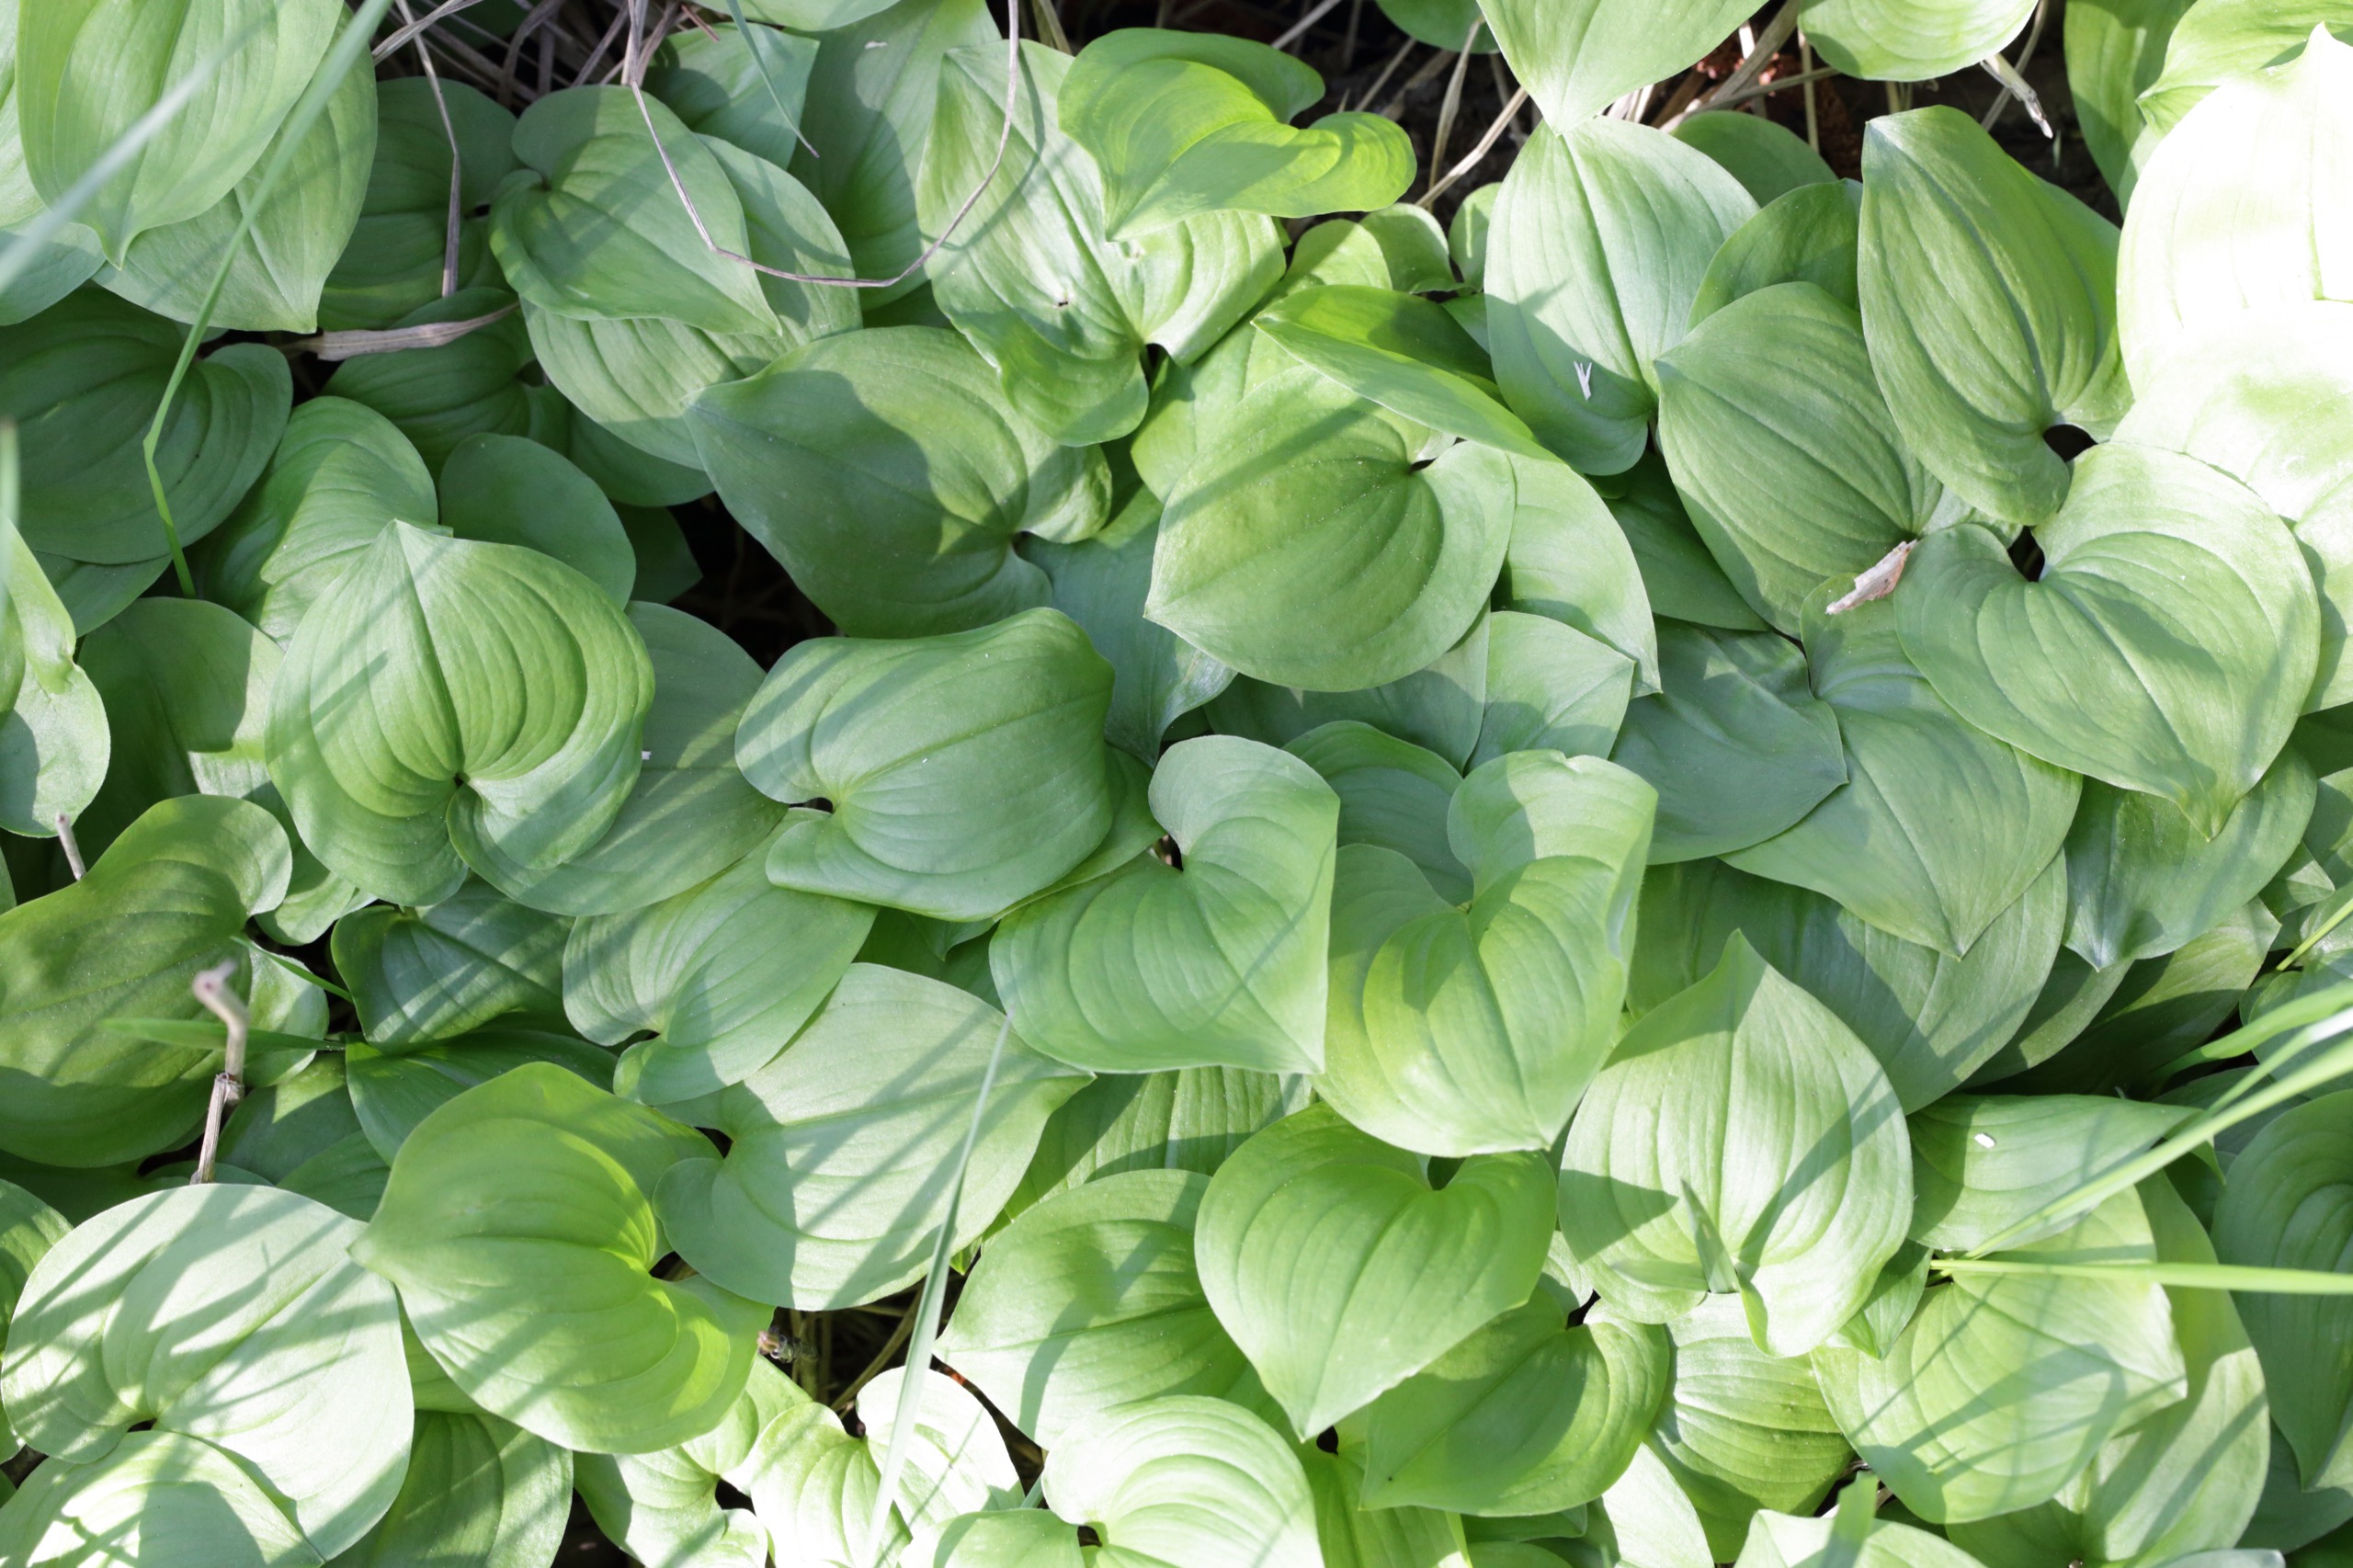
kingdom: Plantae
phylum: Tracheophyta
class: Liliopsida
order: Asparagales
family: Asparagaceae
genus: Maianthemum
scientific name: Maianthemum bifolium
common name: Majblomst
